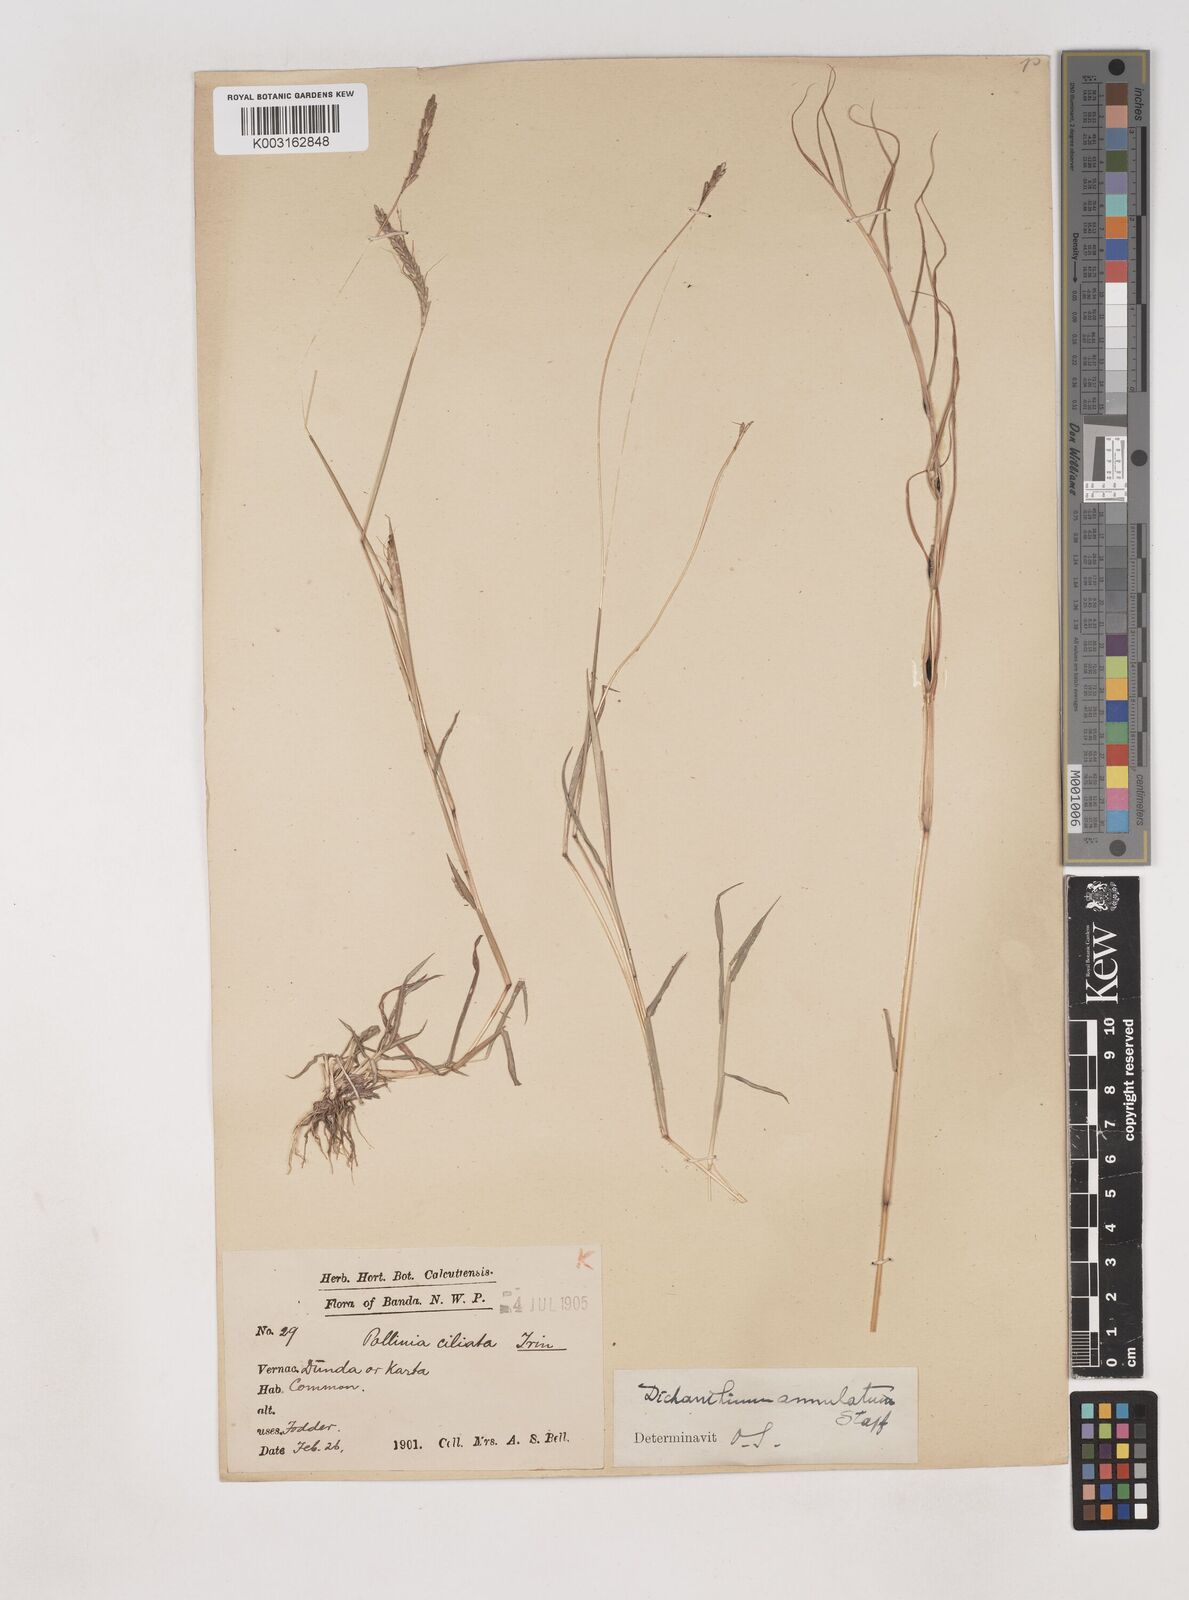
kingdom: Plantae
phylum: Tracheophyta
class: Liliopsida
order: Poales
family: Poaceae
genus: Dichanthium
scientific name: Dichanthium annulatum
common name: Kleberg's bluestem
